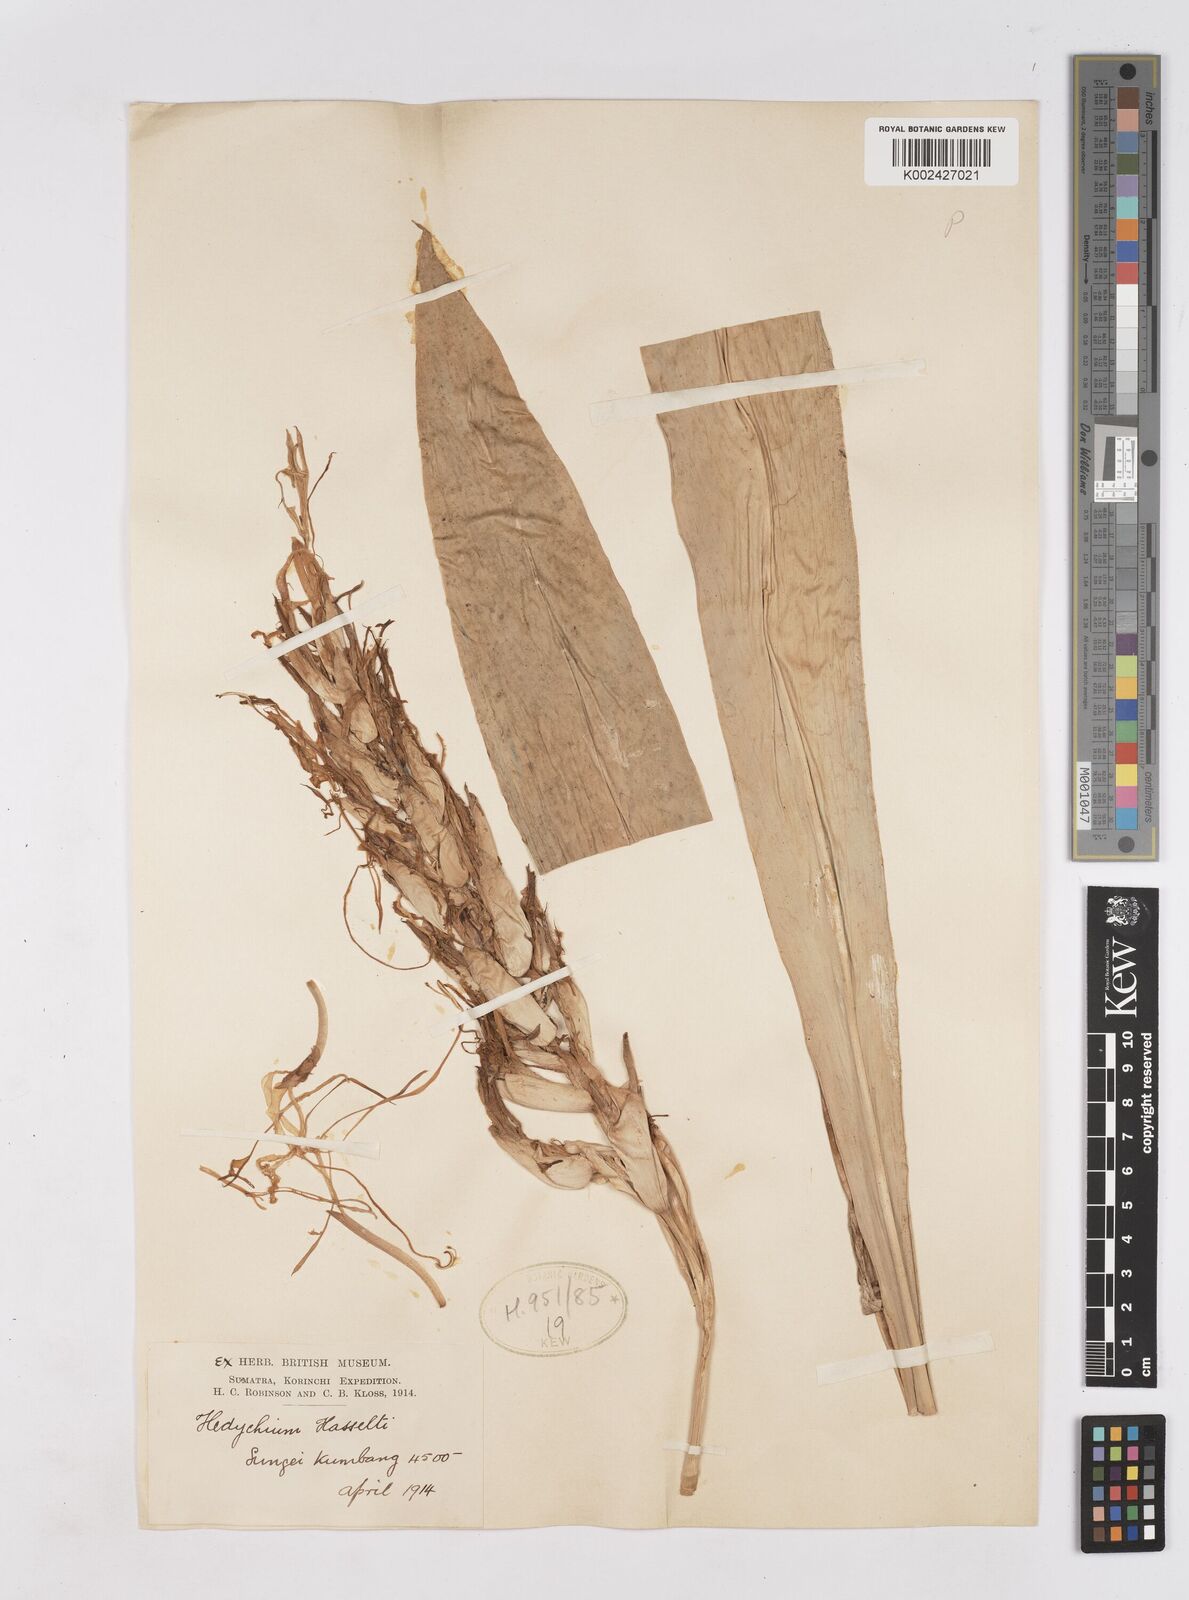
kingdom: Plantae
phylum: Tracheophyta
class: Liliopsida
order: Zingiberales
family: Zingiberaceae
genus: Hedychium
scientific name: Hedychium hasseltii
